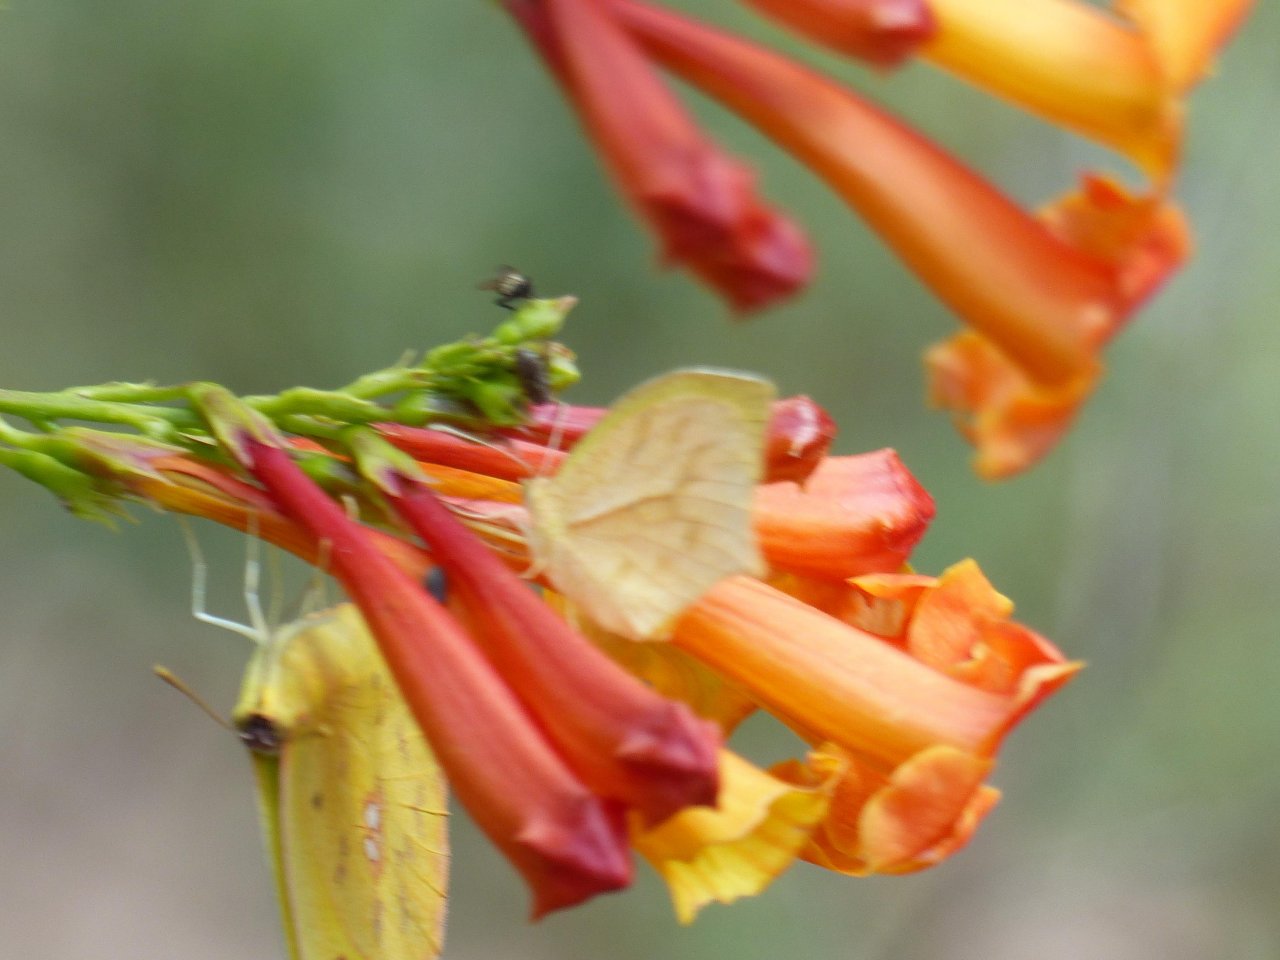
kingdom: Animalia
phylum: Arthropoda
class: Insecta
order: Lepidoptera
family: Pieridae
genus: Pyrisitia
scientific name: Pyrisitia proterpia
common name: Tailed Orange
